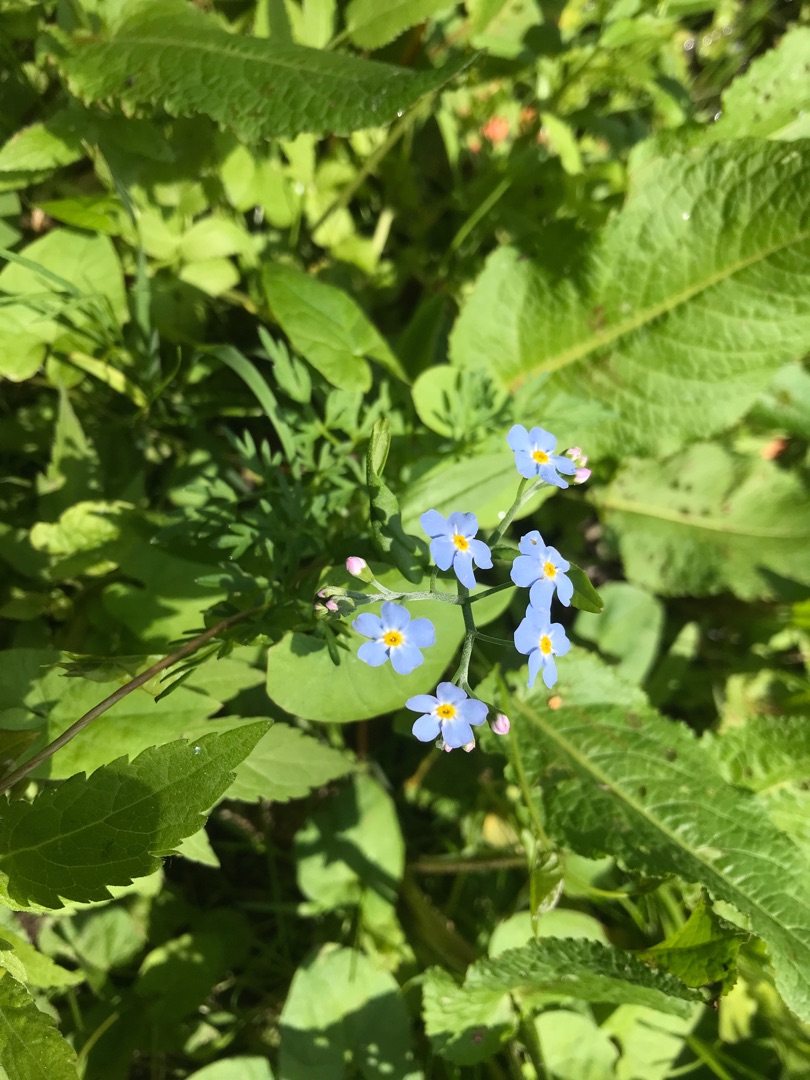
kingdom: Plantae
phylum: Tracheophyta
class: Magnoliopsida
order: Boraginales
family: Boraginaceae
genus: Myosotis
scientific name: Myosotis scorpioides
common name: Eng-forglemmigej
